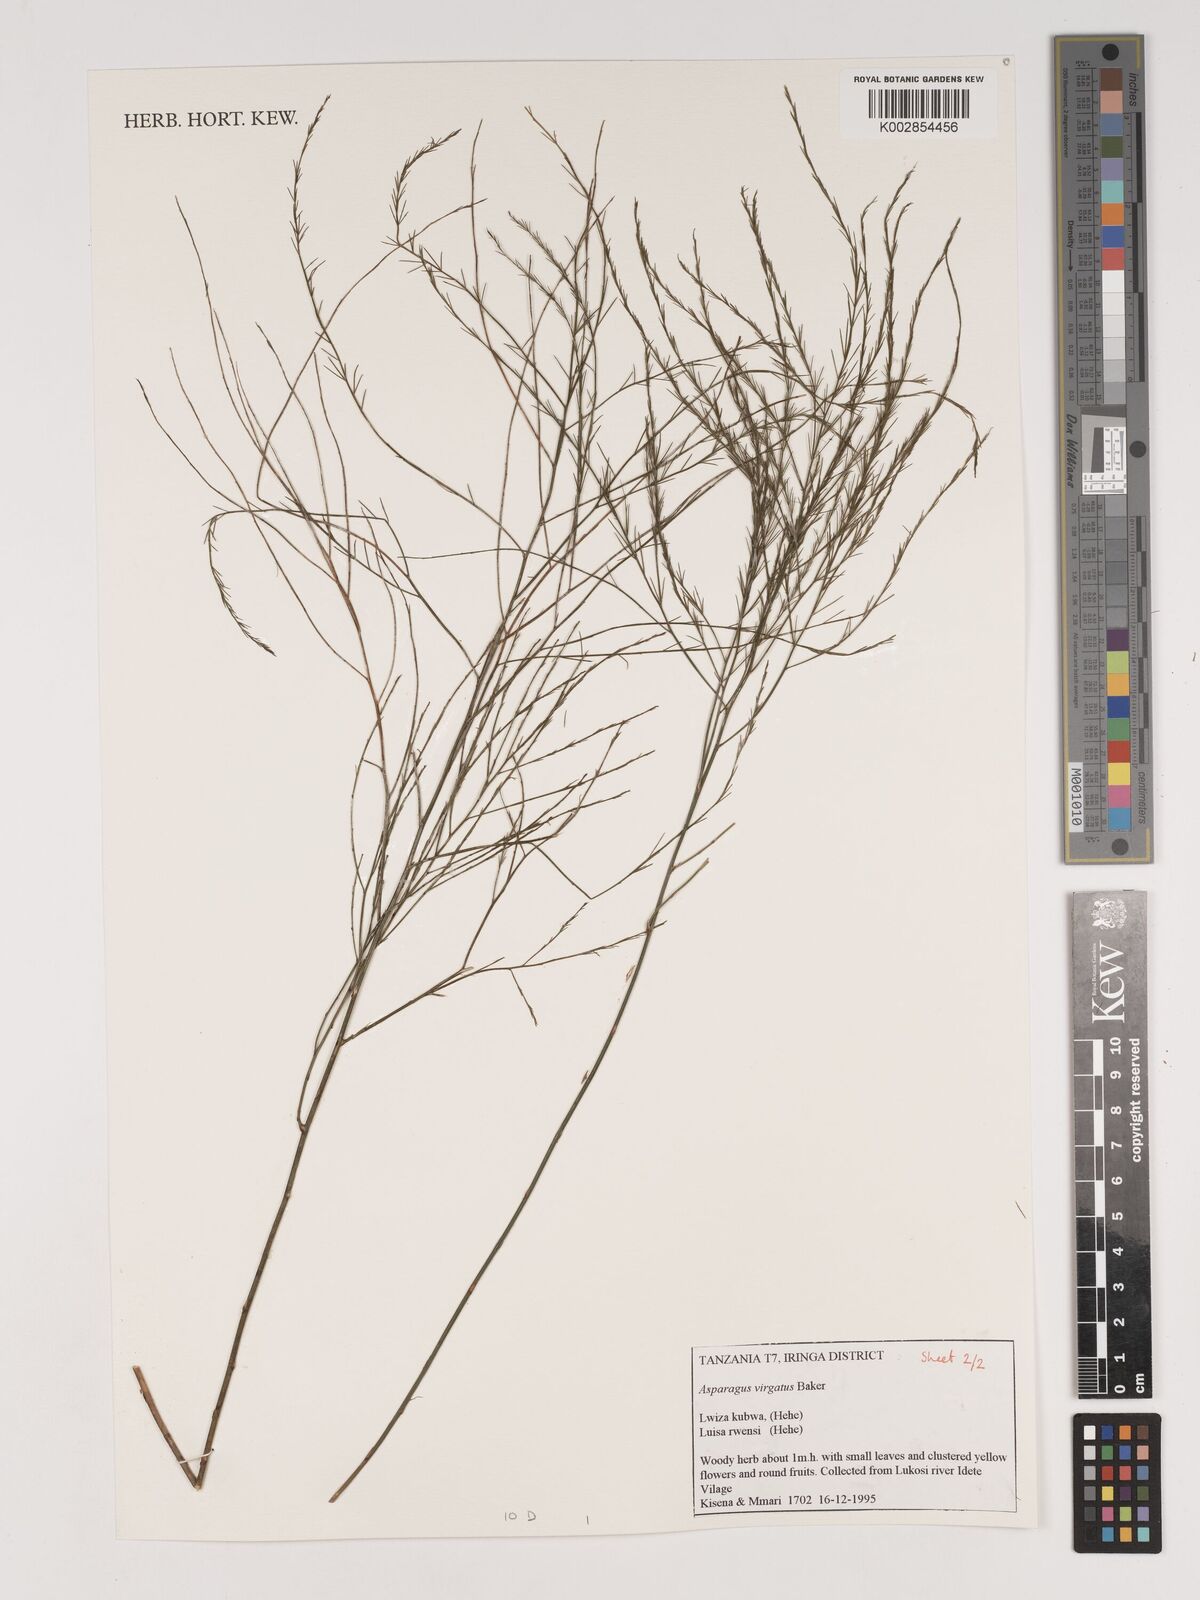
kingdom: Plantae
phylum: Tracheophyta
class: Liliopsida
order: Asparagales
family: Asparagaceae
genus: Asparagus
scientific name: Asparagus
